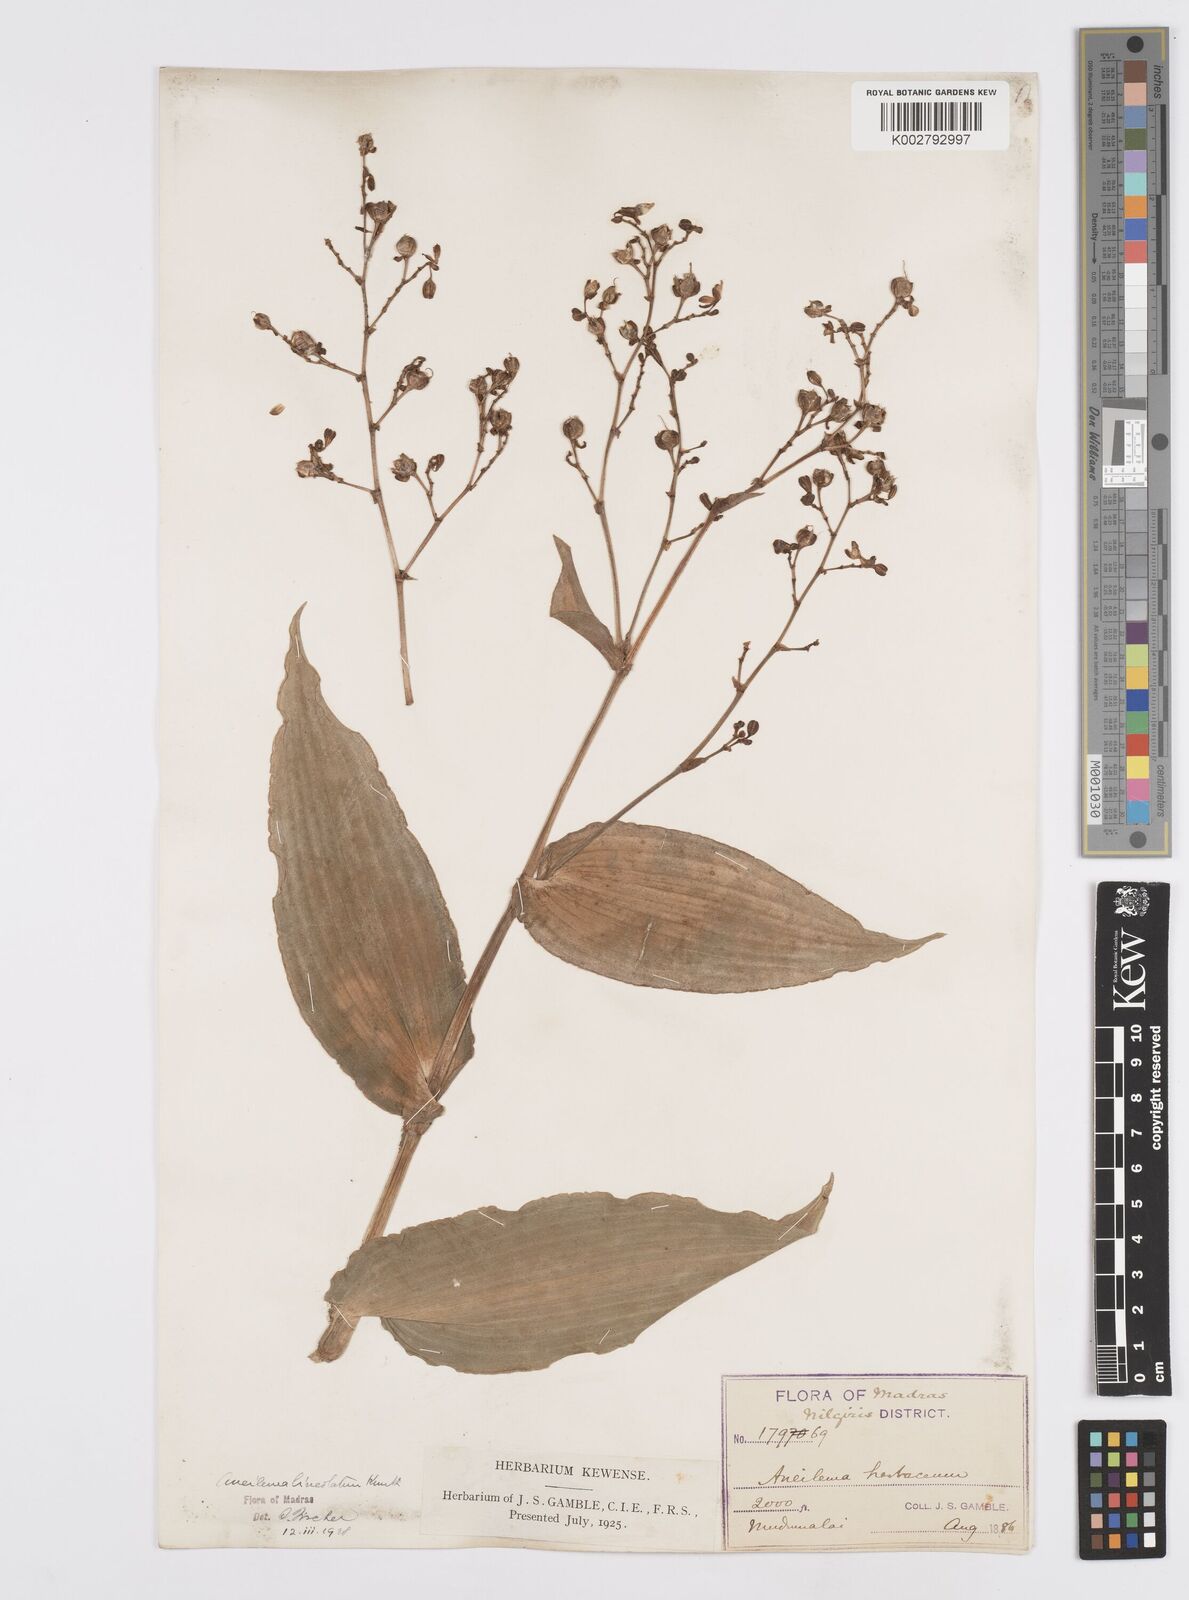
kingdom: Plantae
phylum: Tracheophyta
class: Liliopsida
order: Commelinales
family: Commelinaceae
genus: Murdannia
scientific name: Murdannia
